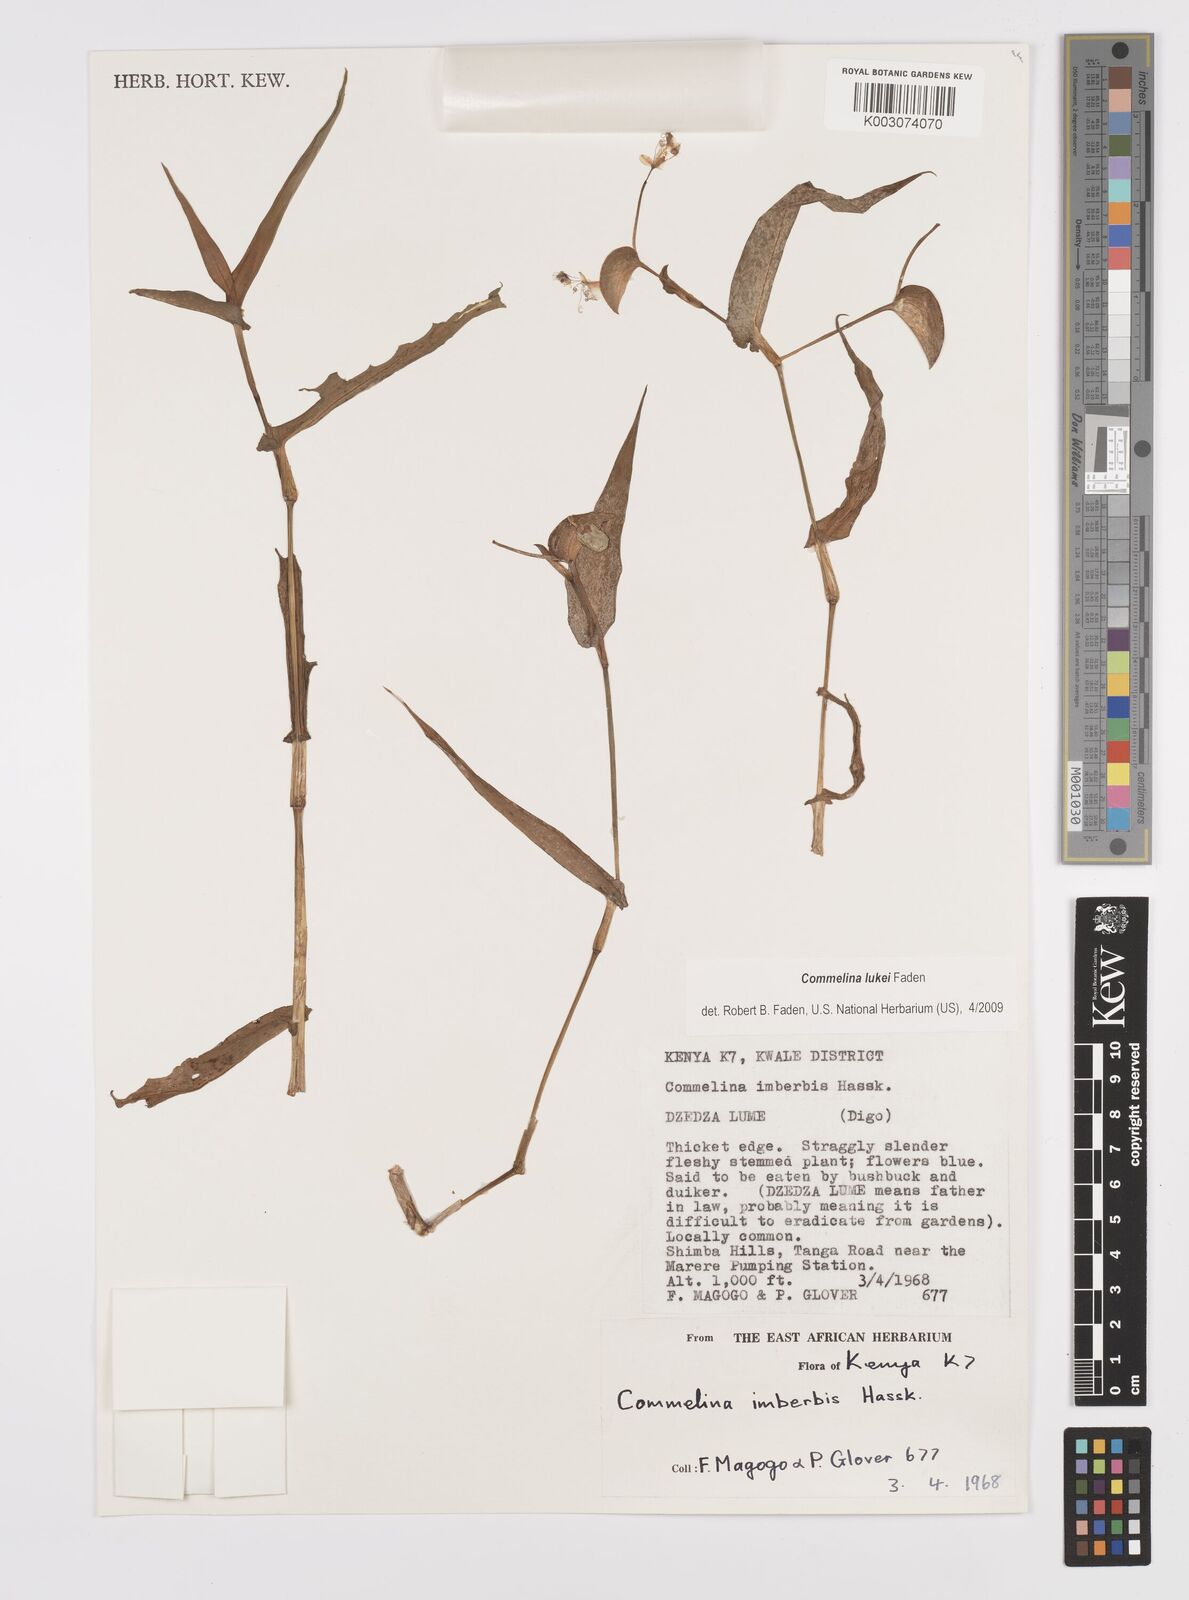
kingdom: Plantae
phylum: Tracheophyta
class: Liliopsida
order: Commelinales
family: Commelinaceae
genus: Commelina
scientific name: Commelina lukei
